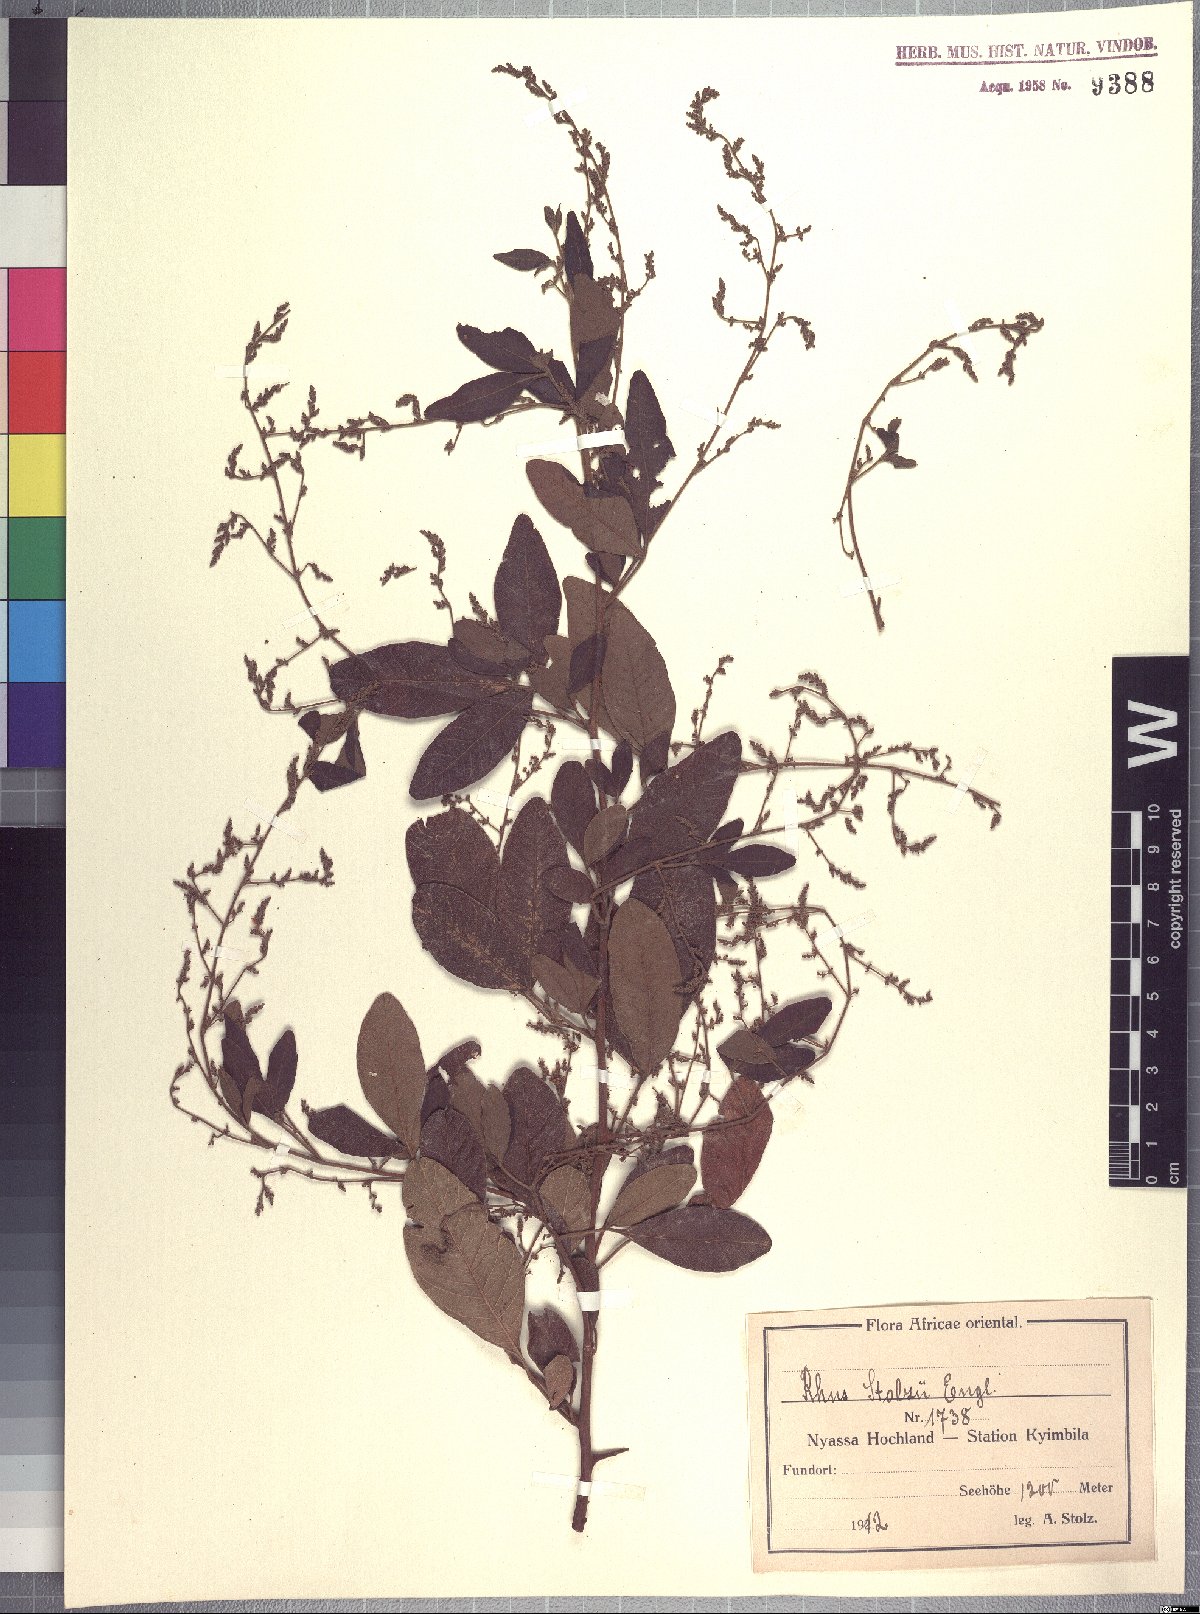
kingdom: Plantae
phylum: Tracheophyta
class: Magnoliopsida
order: Sapindales
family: Anacardiaceae
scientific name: Anacardiaceae
